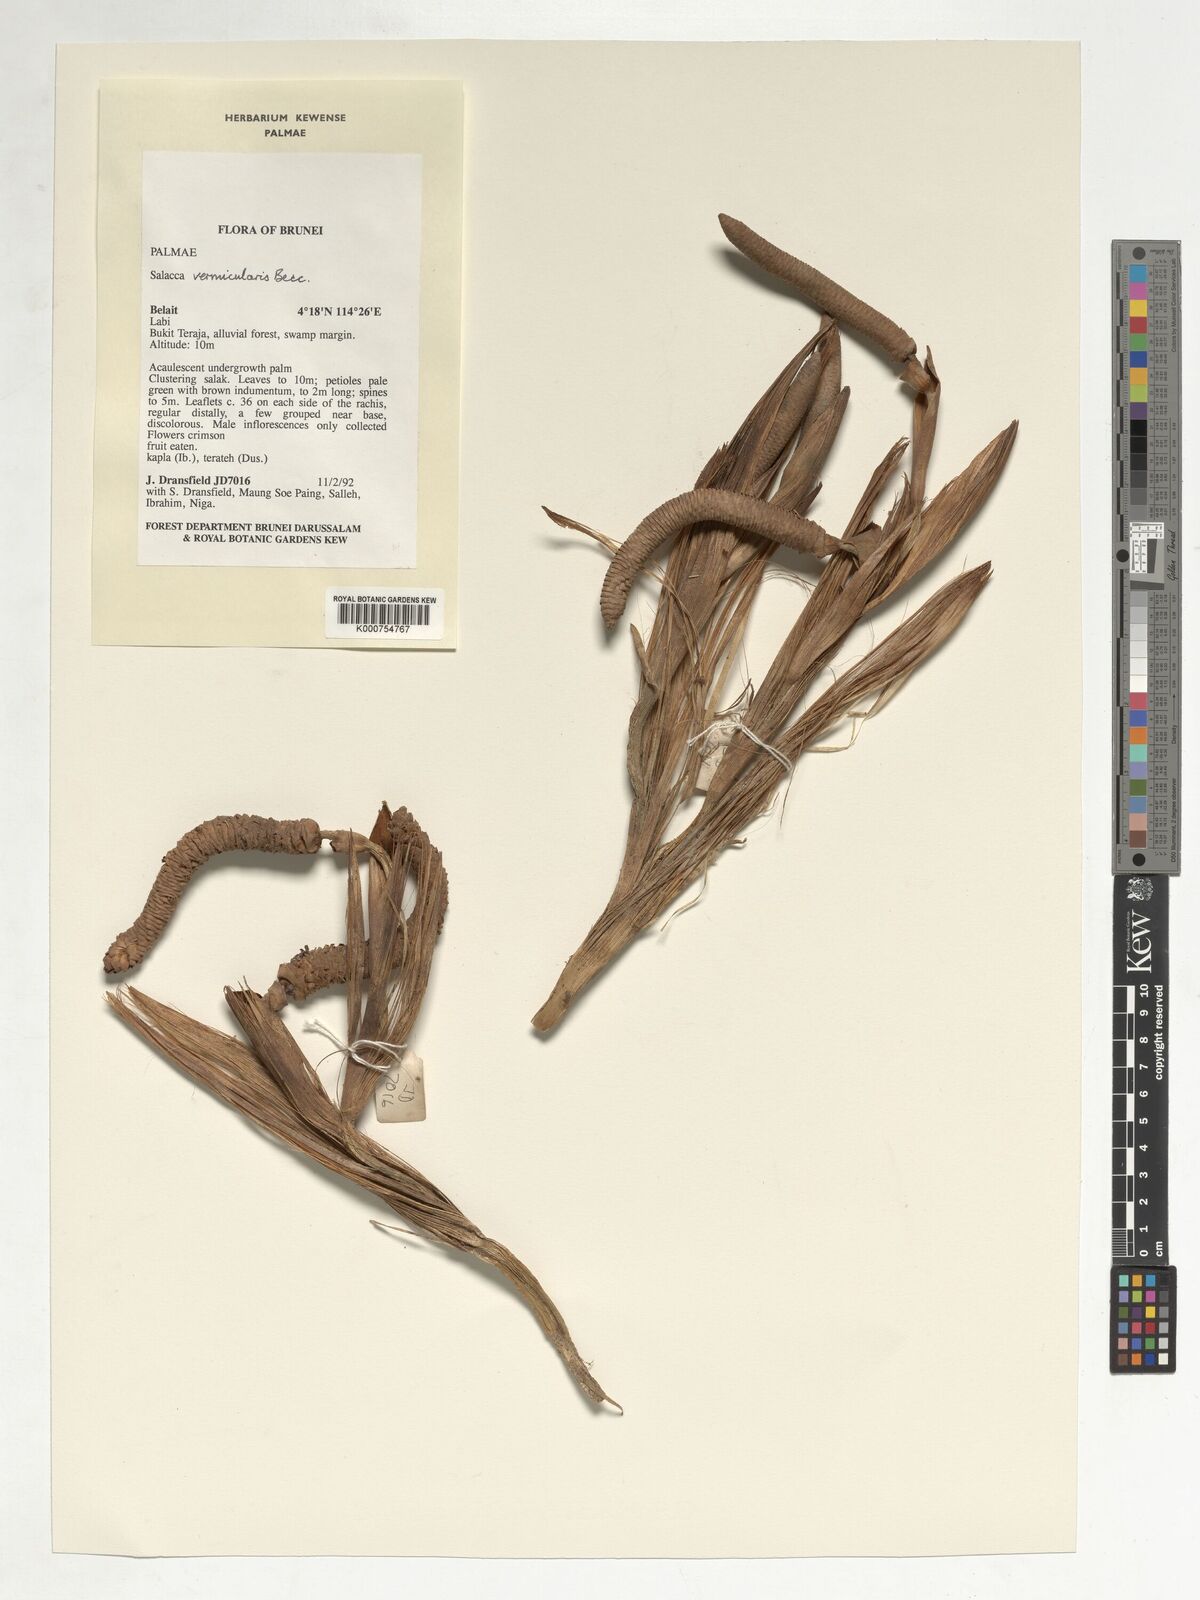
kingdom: Plantae
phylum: Tracheophyta
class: Liliopsida
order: Arecales
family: Arecaceae
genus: Salacca
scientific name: Salacca vermicularis
